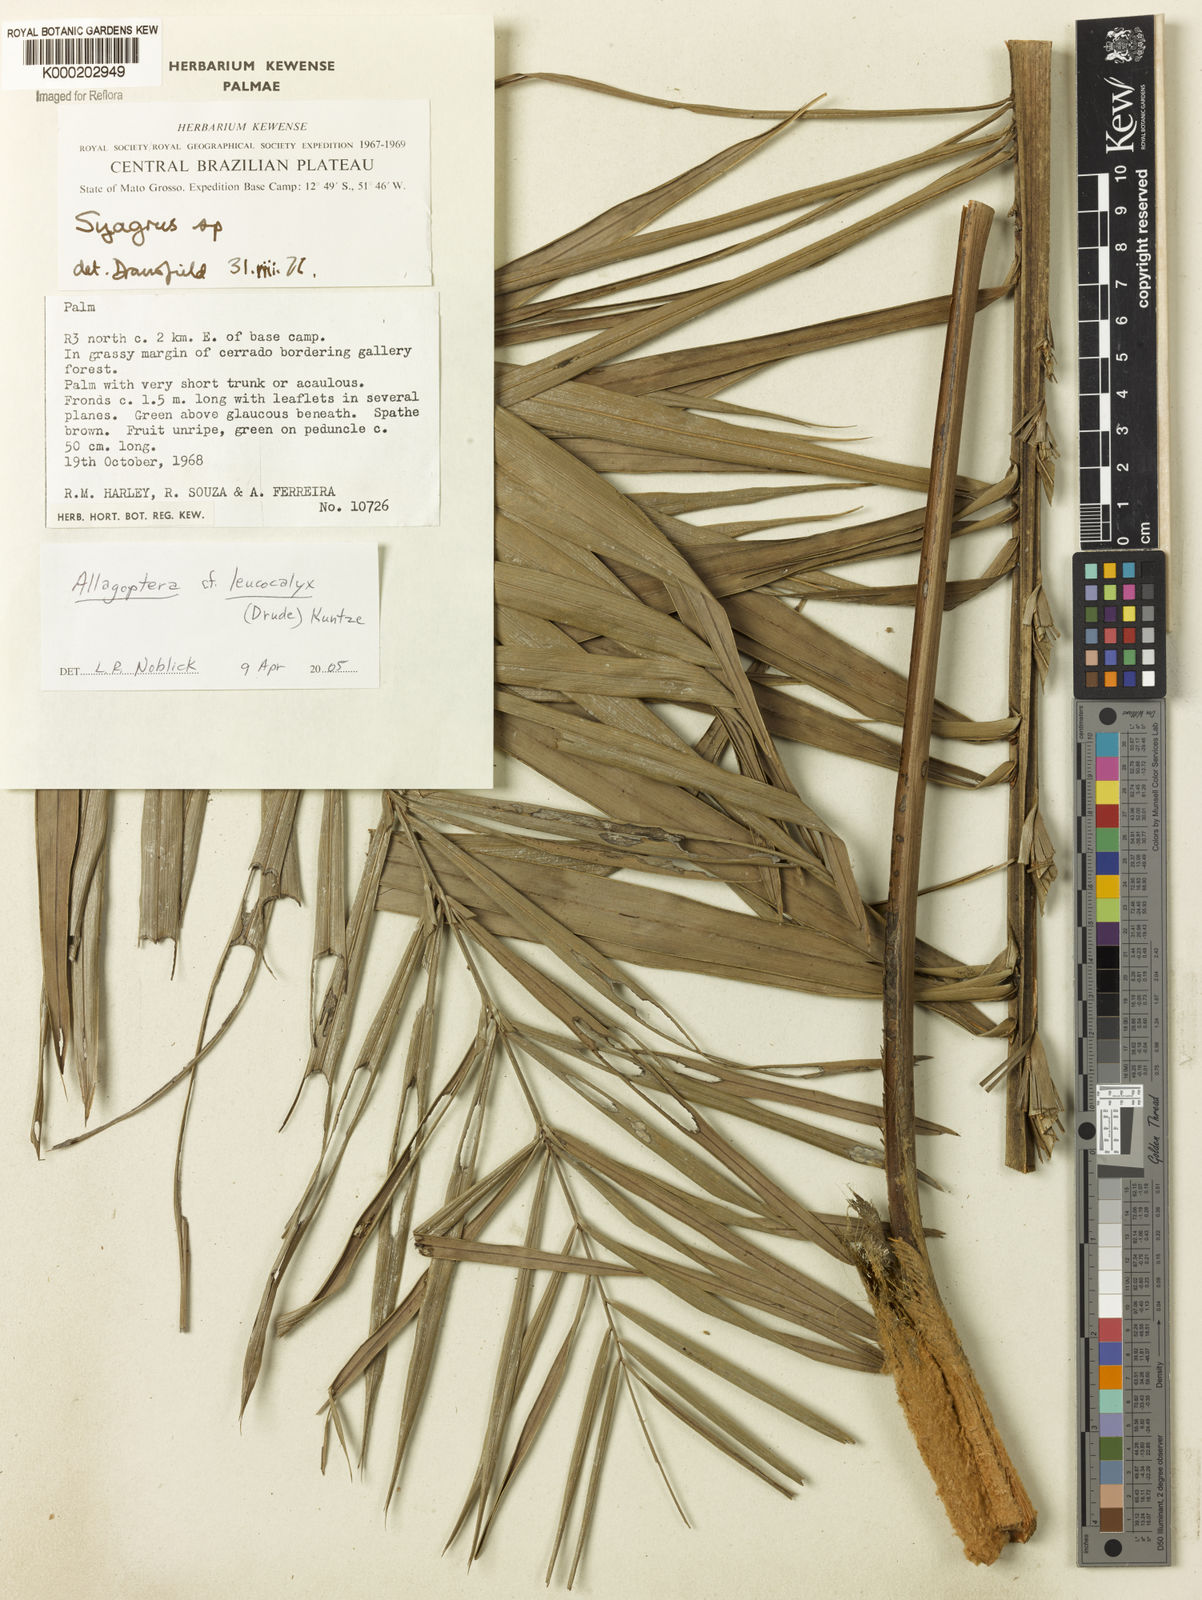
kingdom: Plantae
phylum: Tracheophyta
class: Liliopsida
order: Arecales
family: Arecaceae
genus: Syagrus
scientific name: Syagrus
